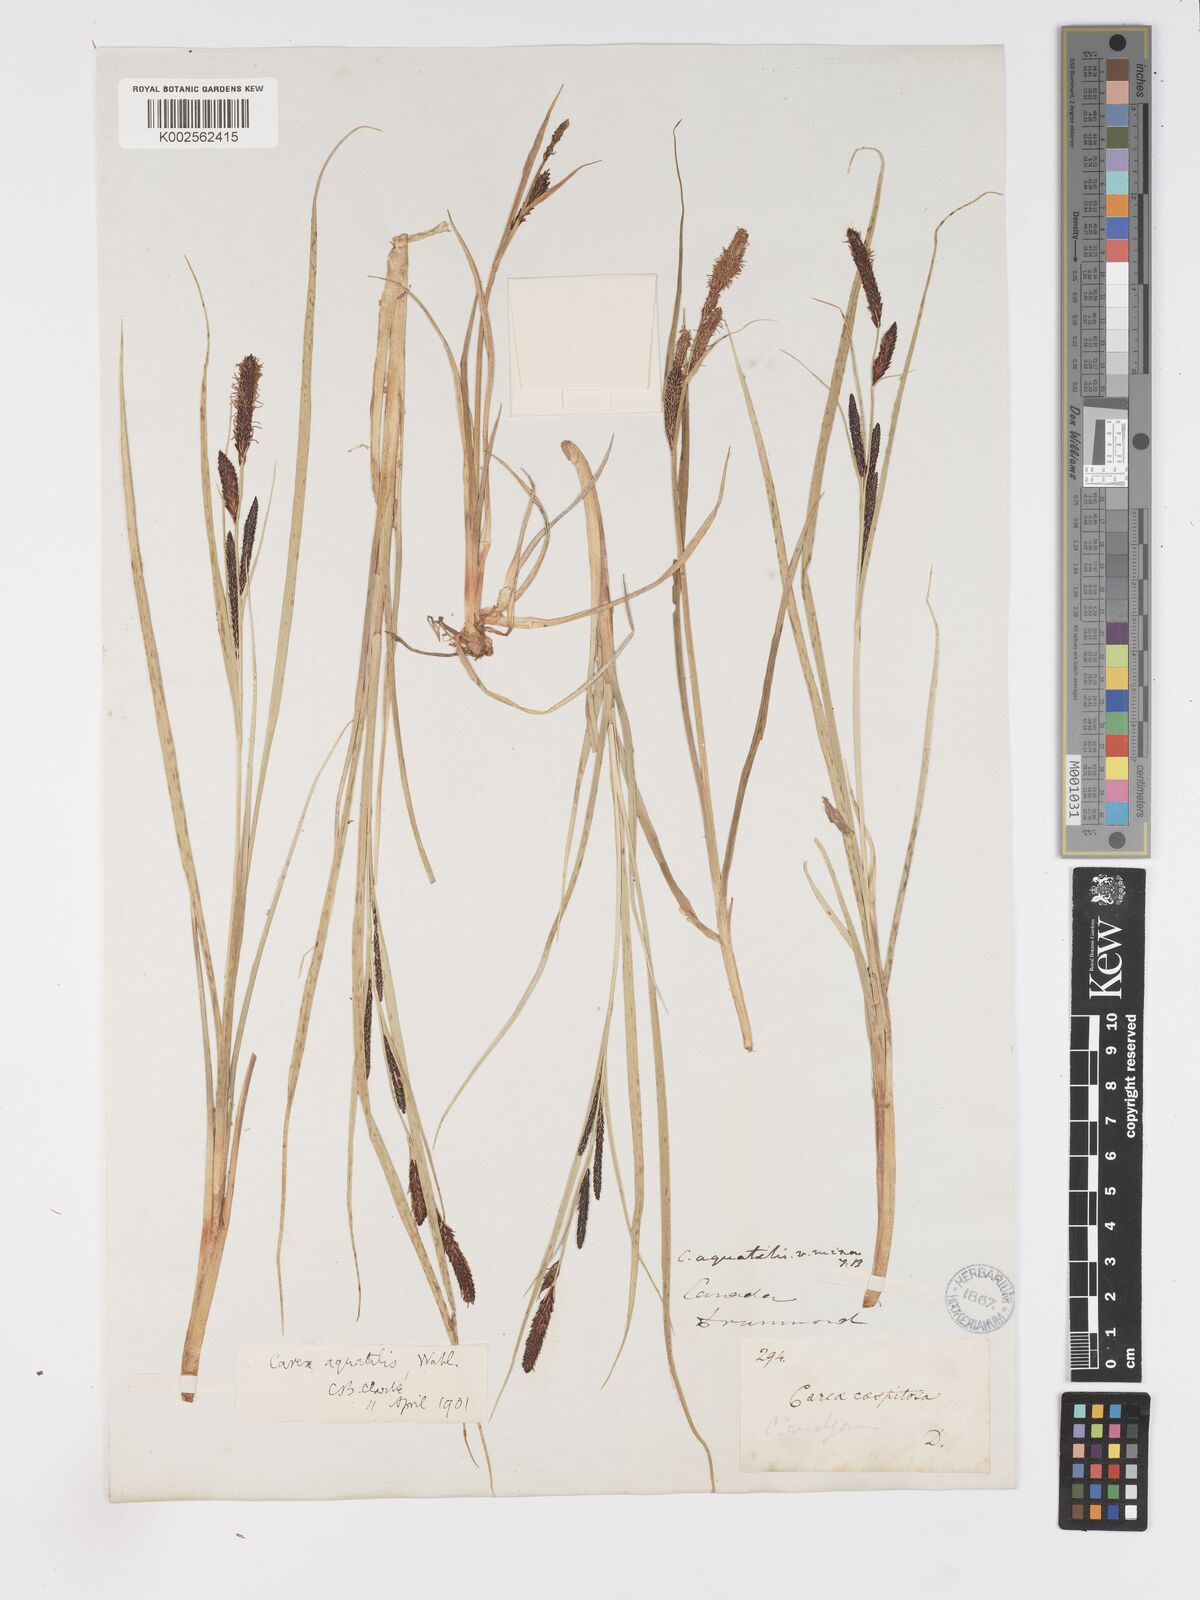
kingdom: Plantae
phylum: Tracheophyta
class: Liliopsida
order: Poales
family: Cyperaceae
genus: Carex
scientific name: Carex aquatilis
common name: Water sedge
